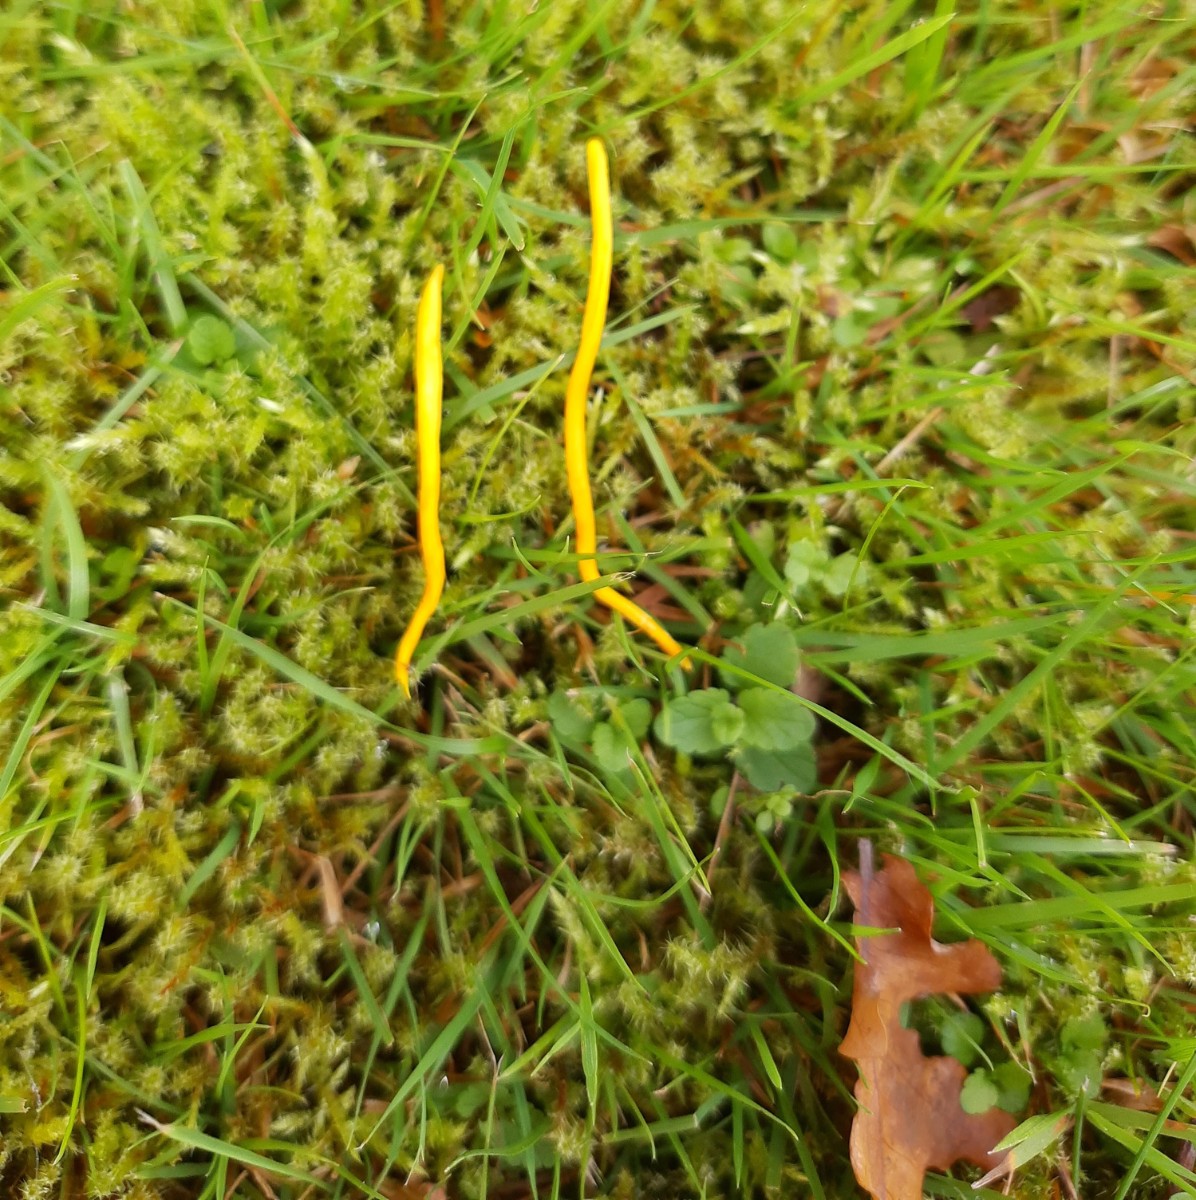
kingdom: Fungi
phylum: Basidiomycota
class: Agaricomycetes
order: Agaricales
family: Clavariaceae
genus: Clavulinopsis
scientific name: Clavulinopsis helvola
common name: orangegul køllesvamp
